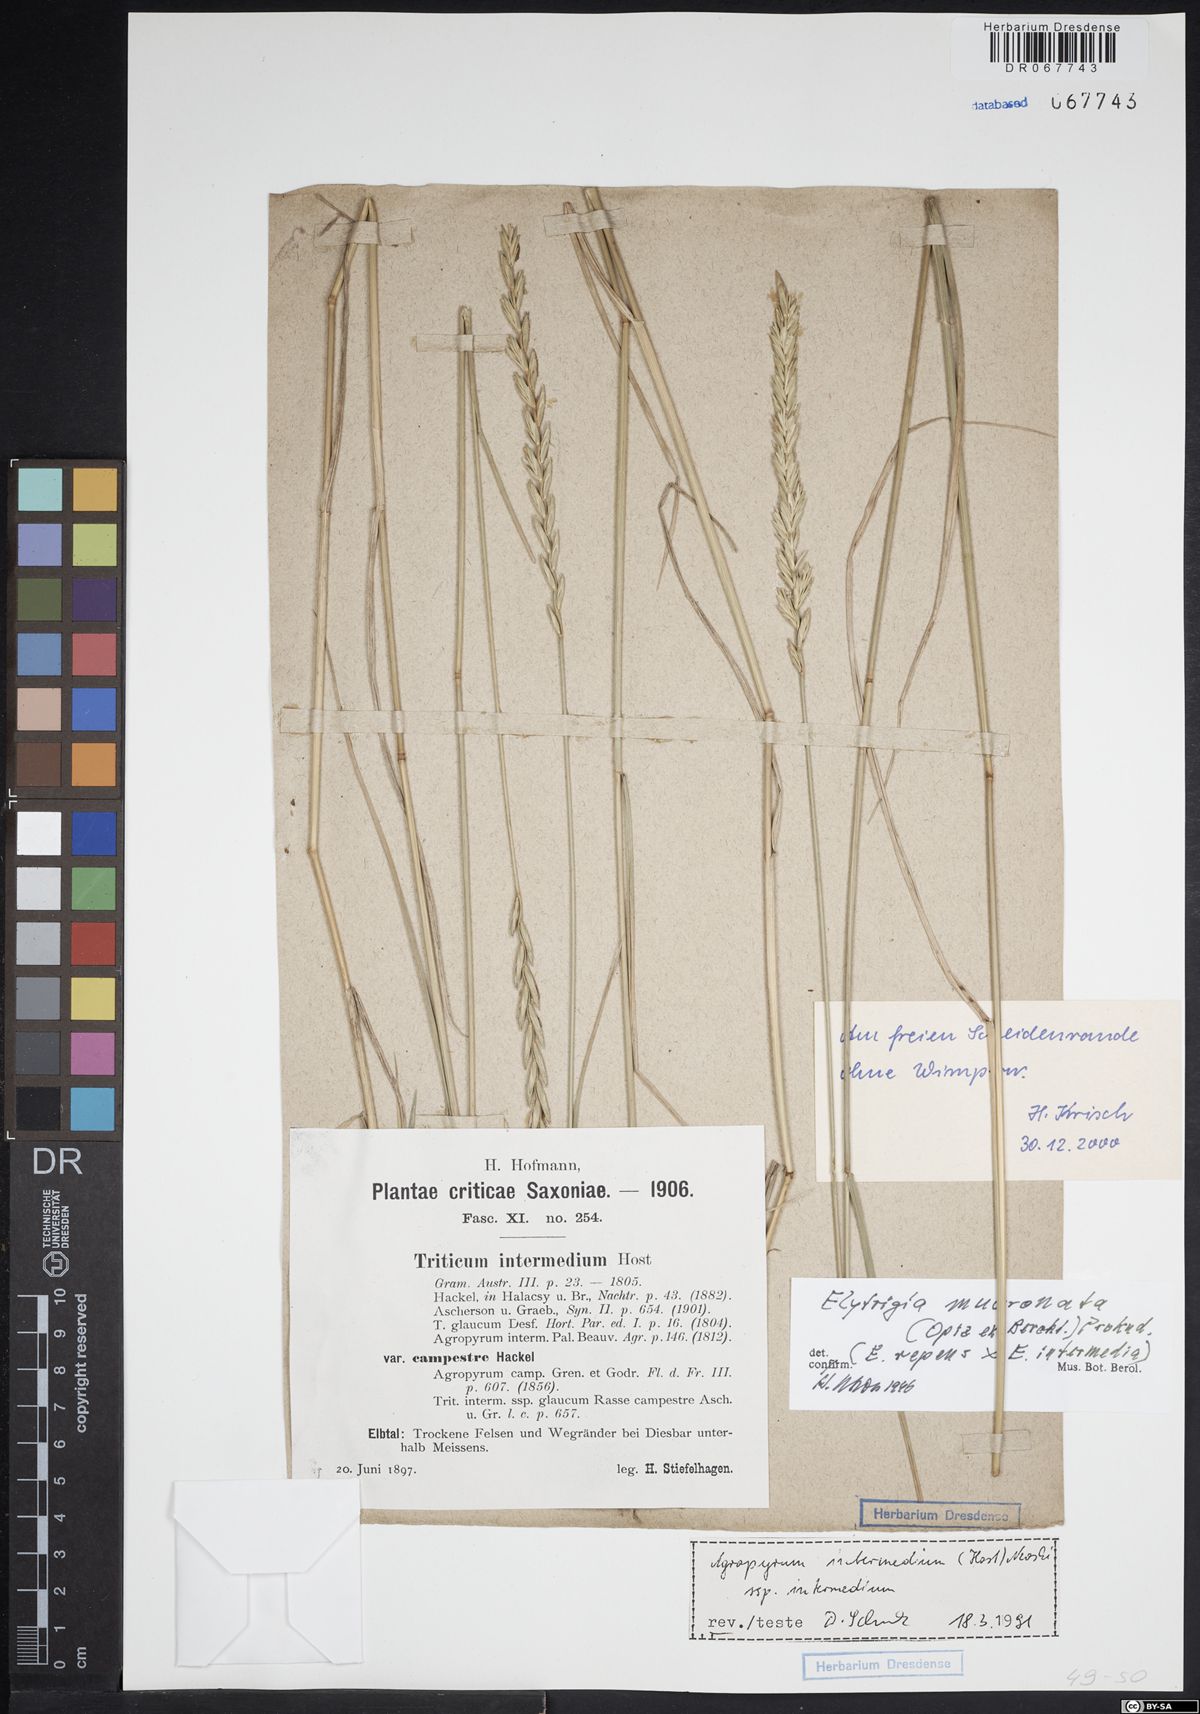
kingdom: Plantae
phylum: Tracheophyta
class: Liliopsida
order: Poales
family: Poaceae
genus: Thinoelymus
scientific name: Thinoelymus mucronatus
